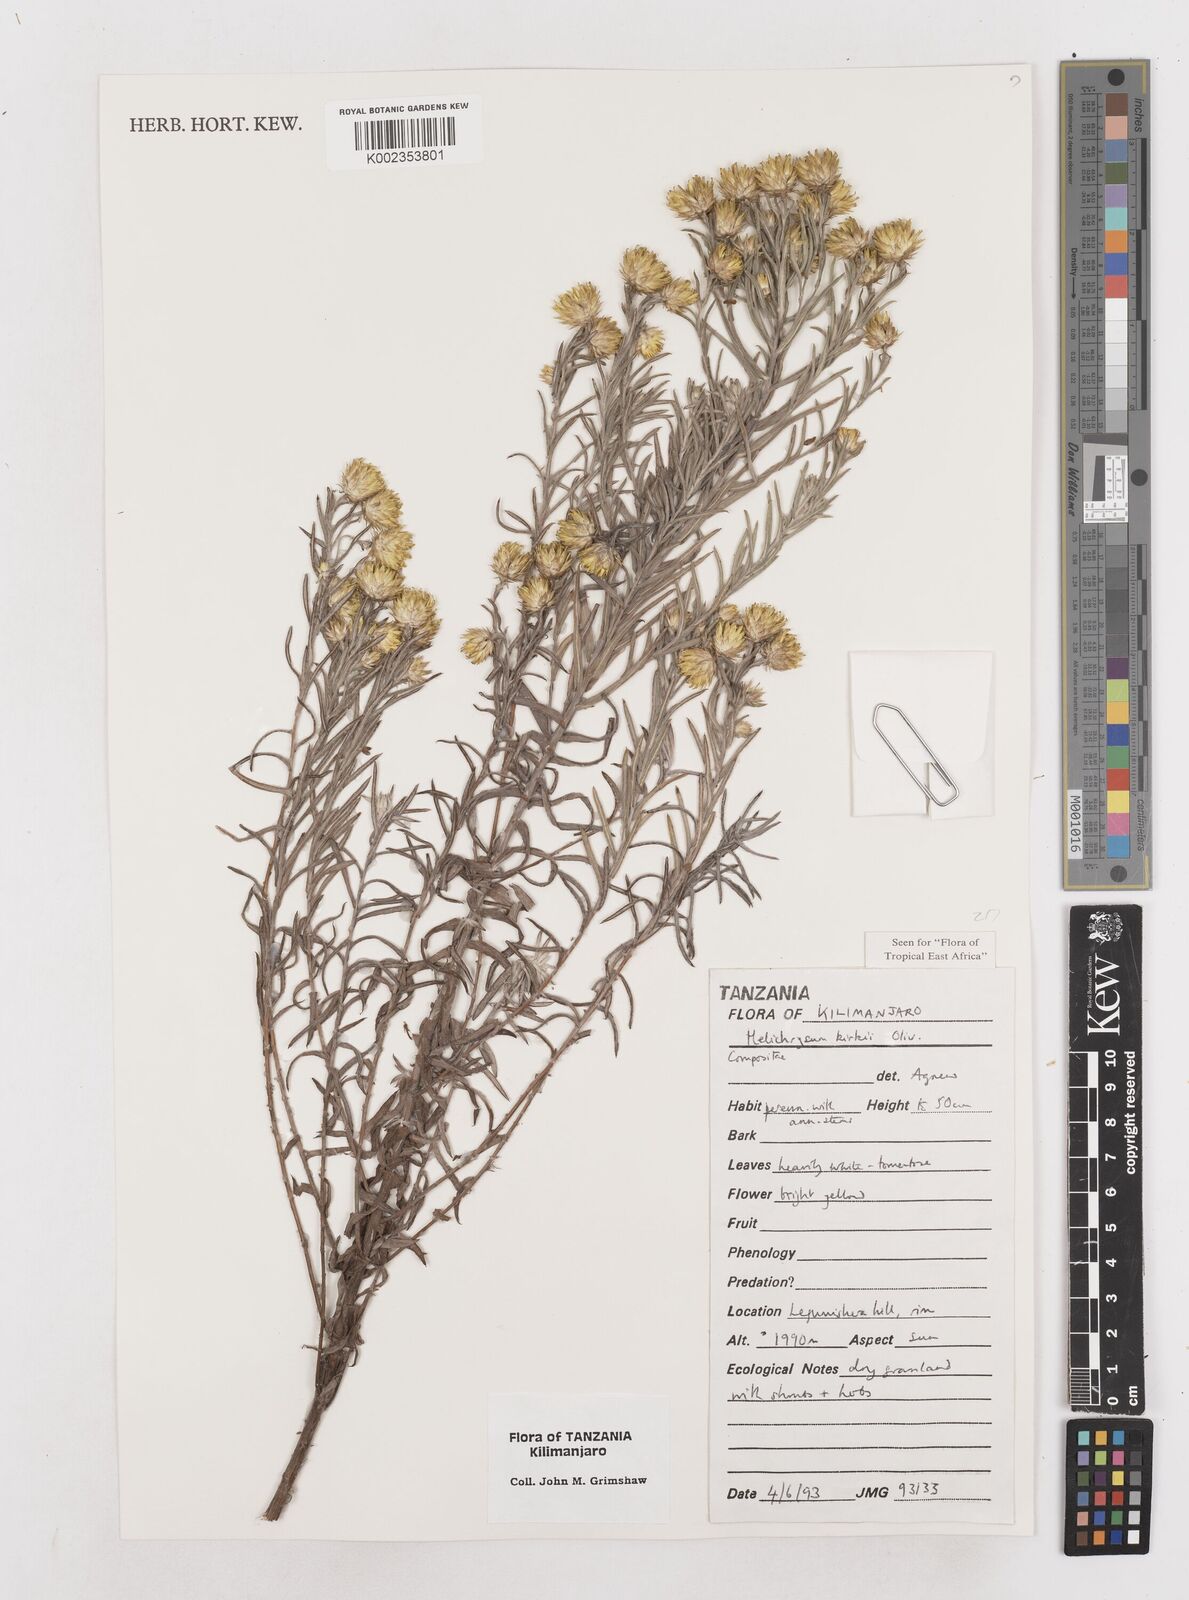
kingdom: Plantae
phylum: Tracheophyta
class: Magnoliopsida
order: Asterales
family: Asteraceae
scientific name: Asteraceae
